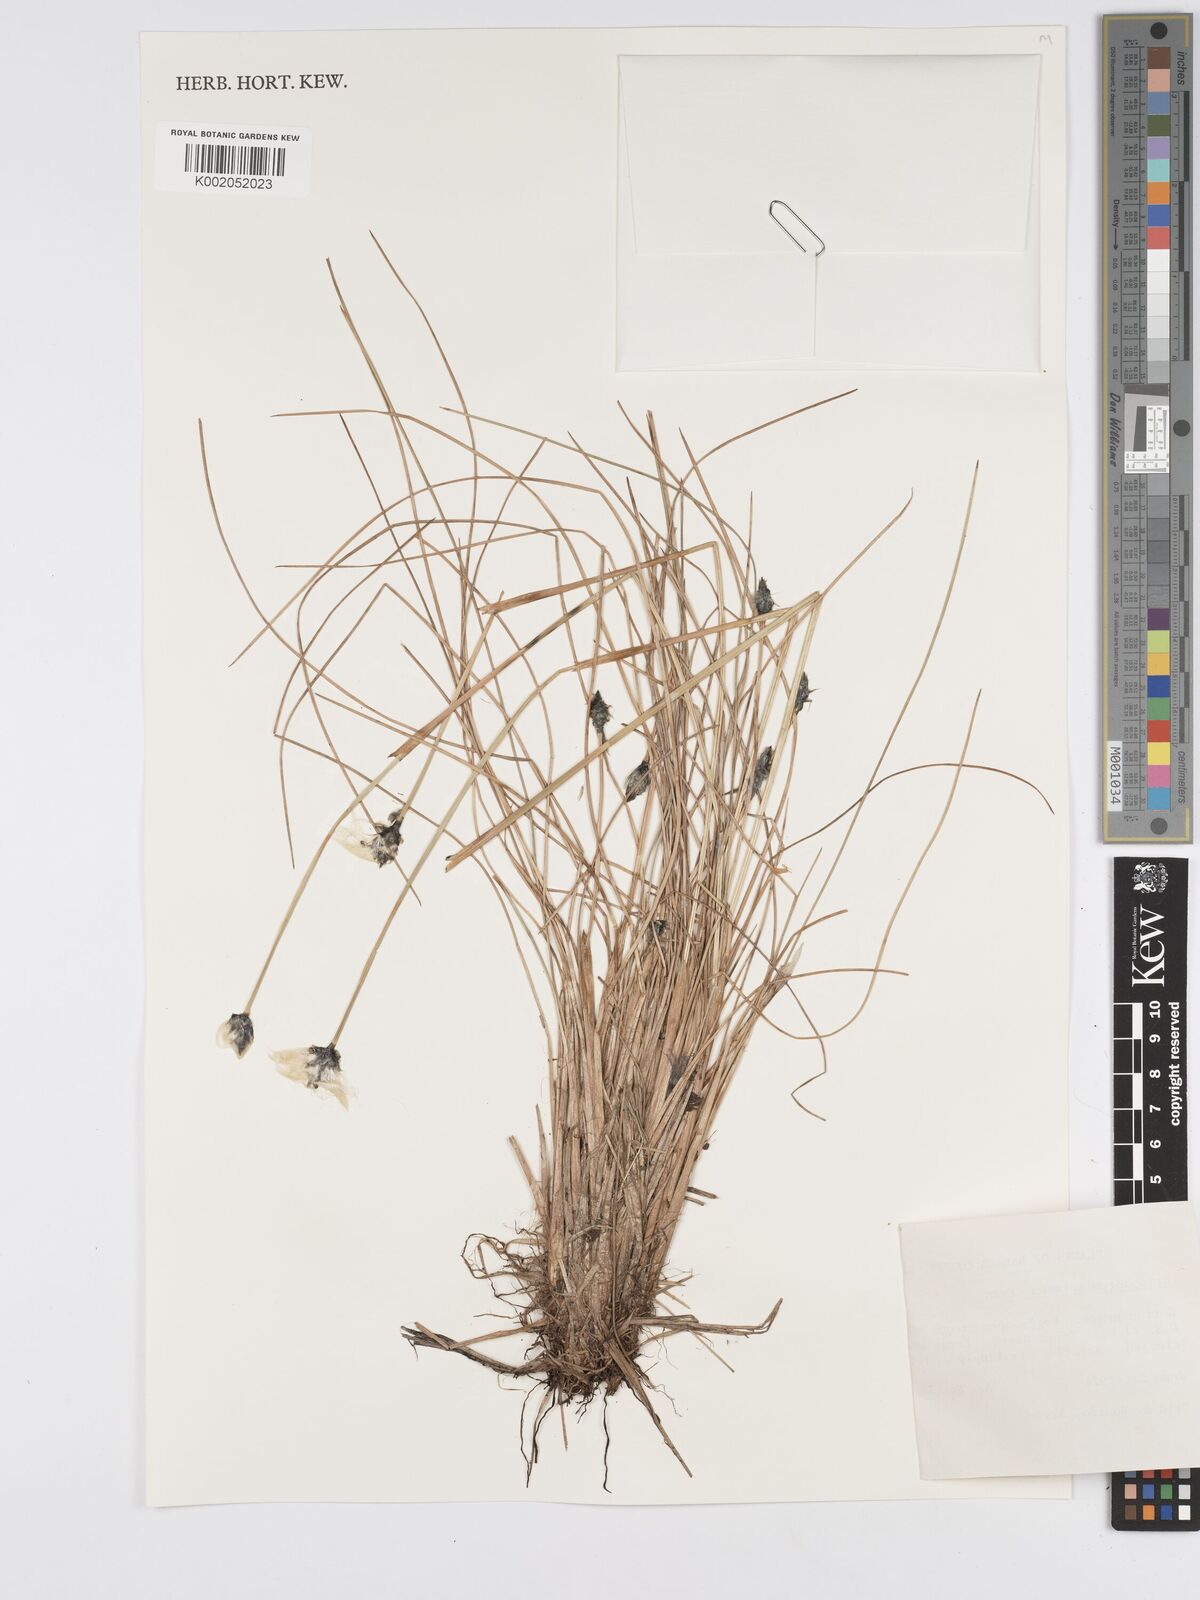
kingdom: Plantae
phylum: Tracheophyta
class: Liliopsida
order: Poales
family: Cyperaceae
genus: Eriophorum
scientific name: Eriophorum vaginatum
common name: Hare's-tail cottongrass
